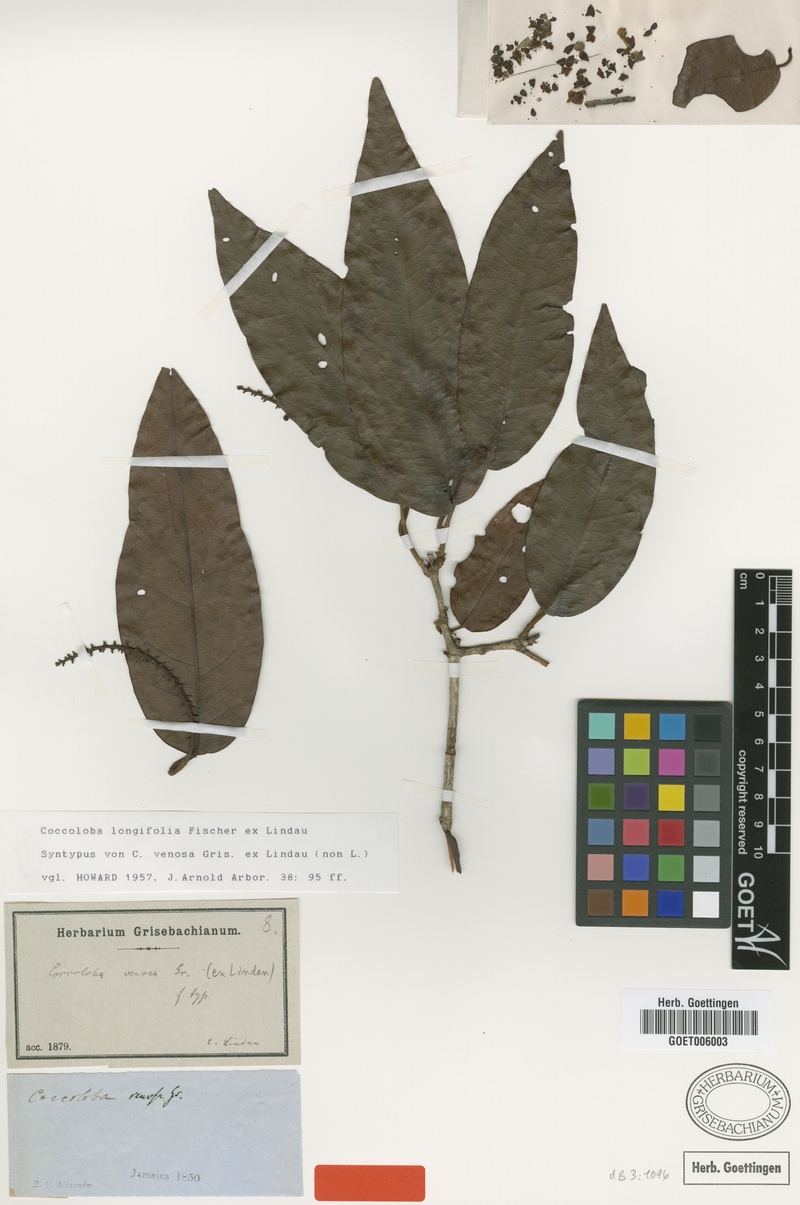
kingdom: Plantae
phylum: Tracheophyta
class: Magnoliopsida
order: Caryophyllales
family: Polygonaceae
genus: Coccoloba
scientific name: Coccoloba longifolia
